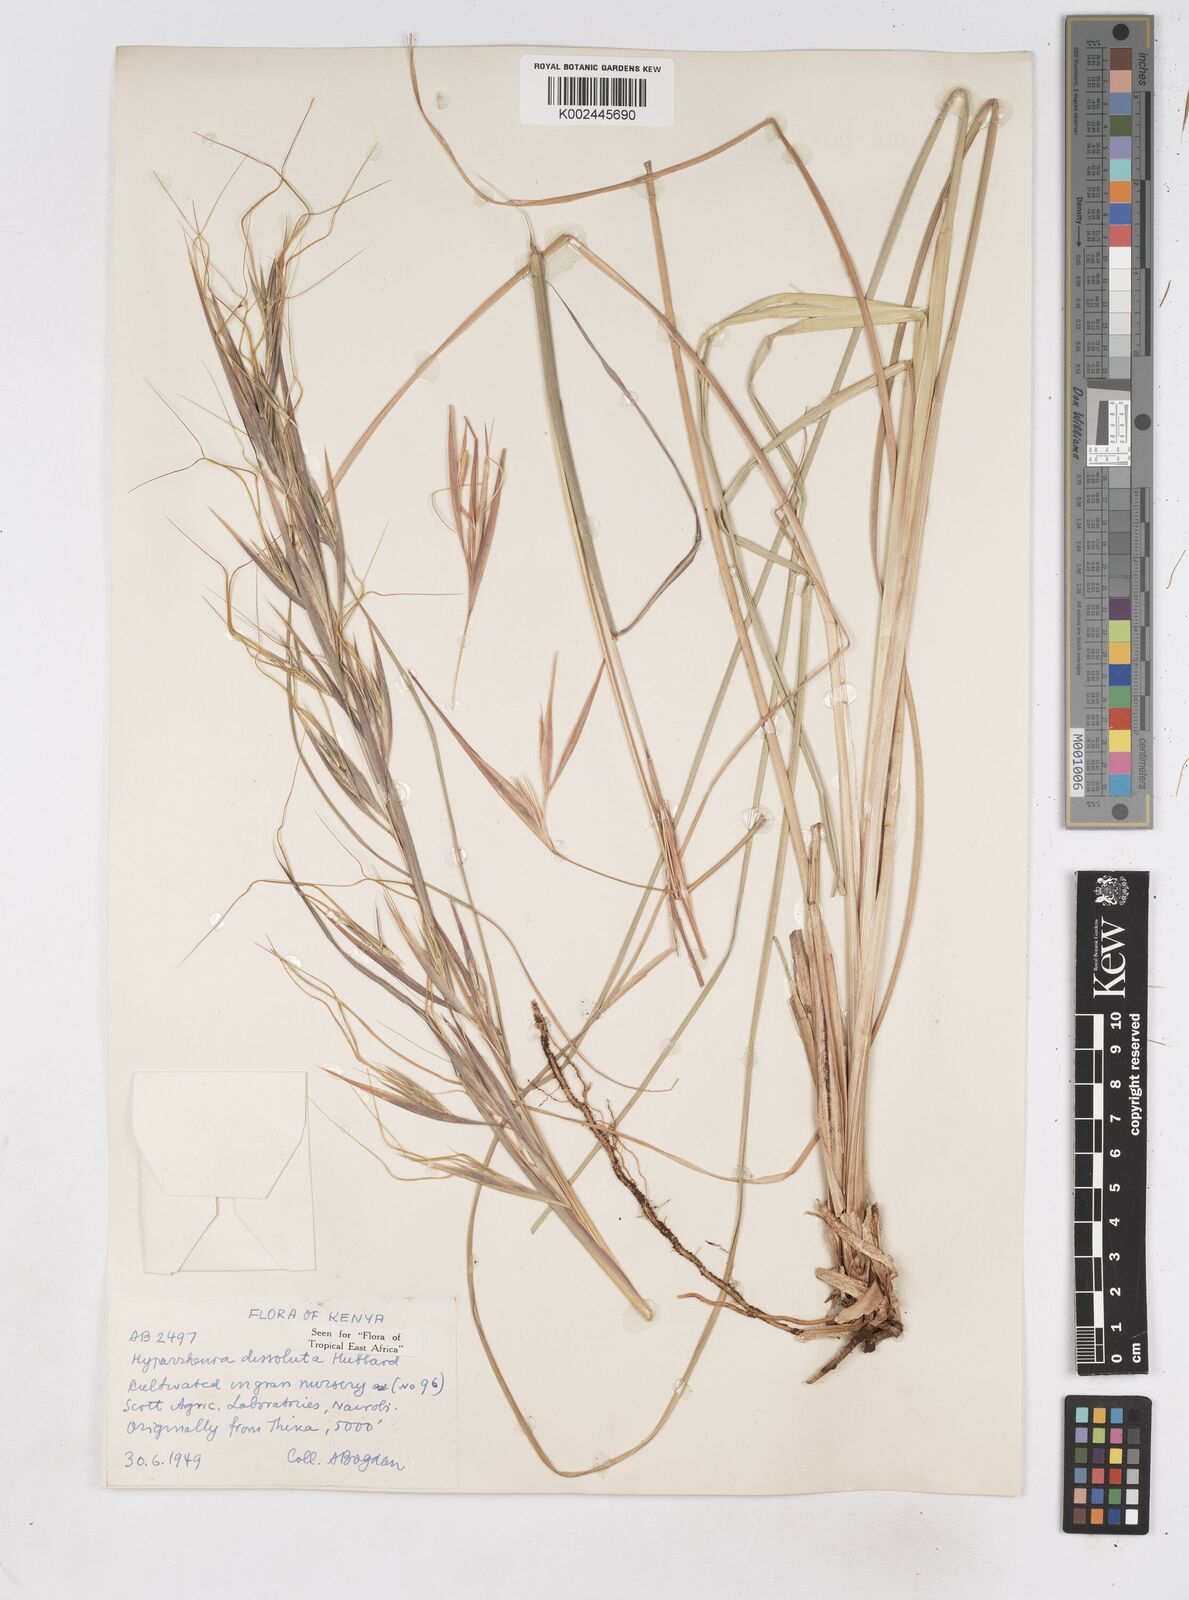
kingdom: Plantae
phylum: Tracheophyta
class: Liliopsida
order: Poales
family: Poaceae
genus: Hyperthelia
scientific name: Hyperthelia dissoluta
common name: Yellow thatching grass
